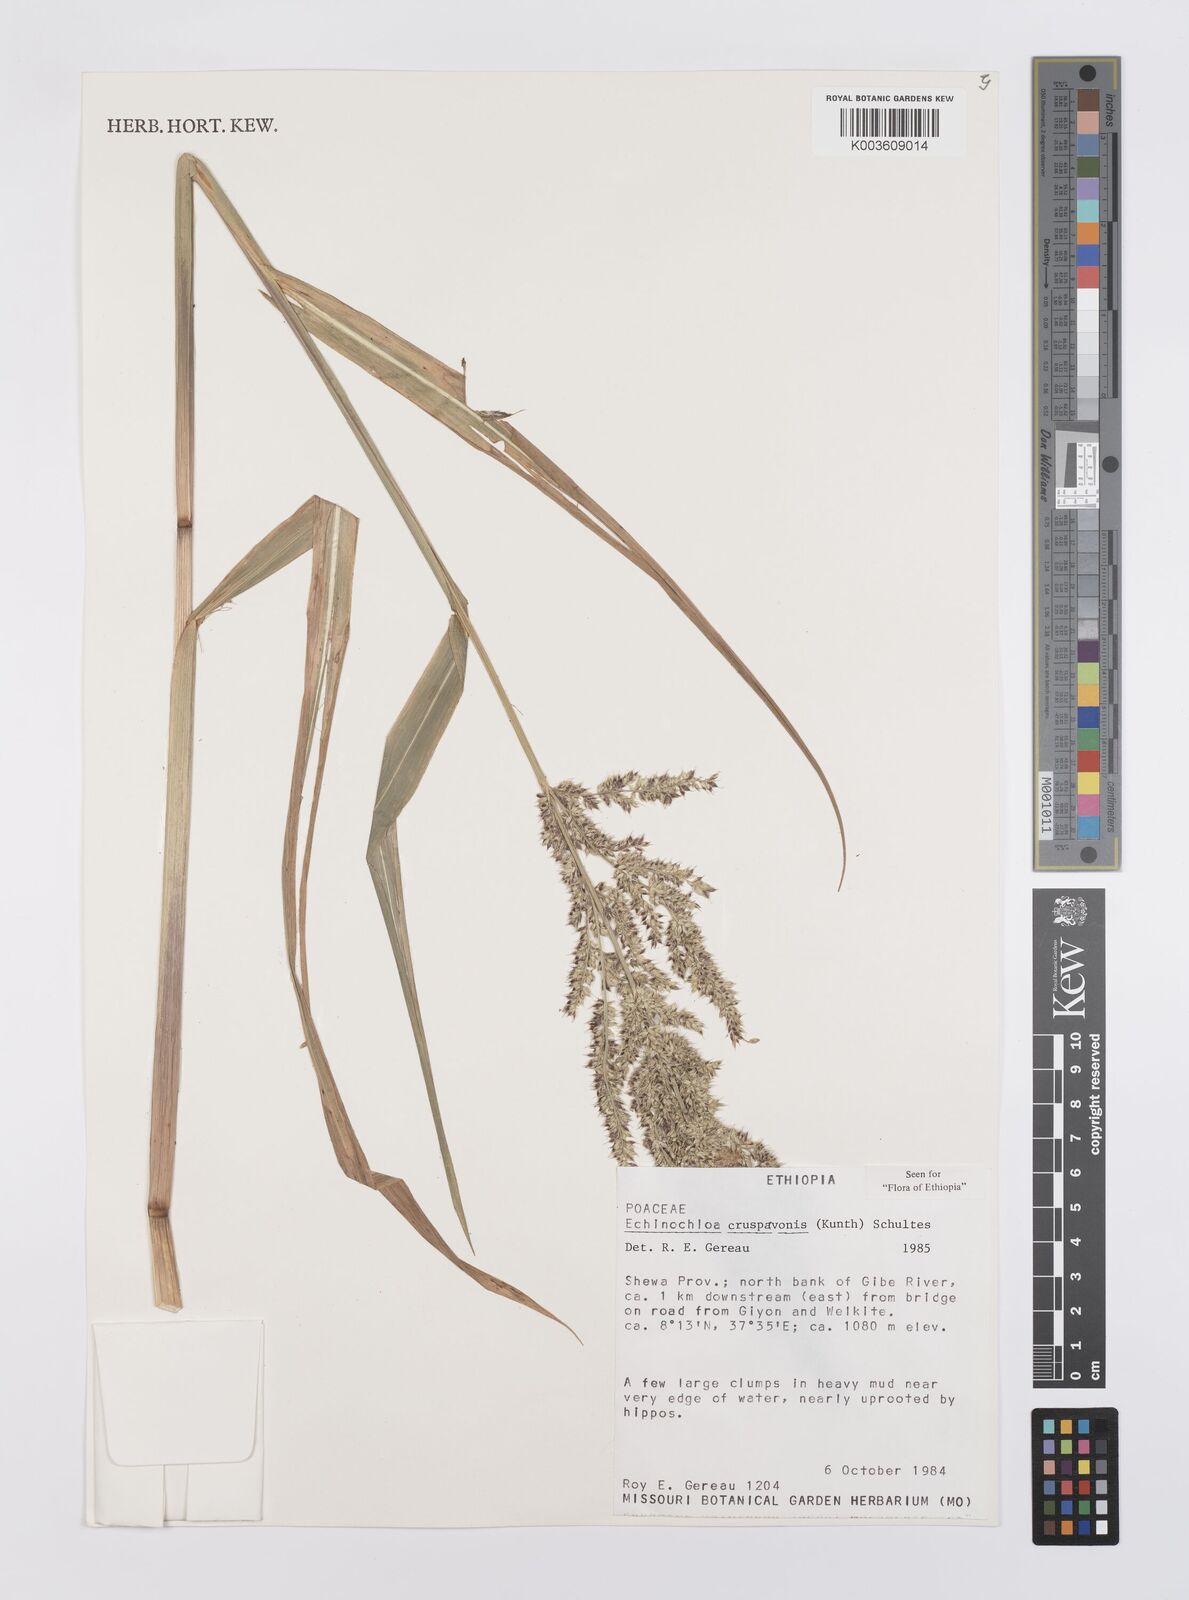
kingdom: Plantae
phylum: Tracheophyta
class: Liliopsida
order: Poales
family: Poaceae
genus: Echinochloa
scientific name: Echinochloa crus-pavonis
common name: Gulf cockspur grass
